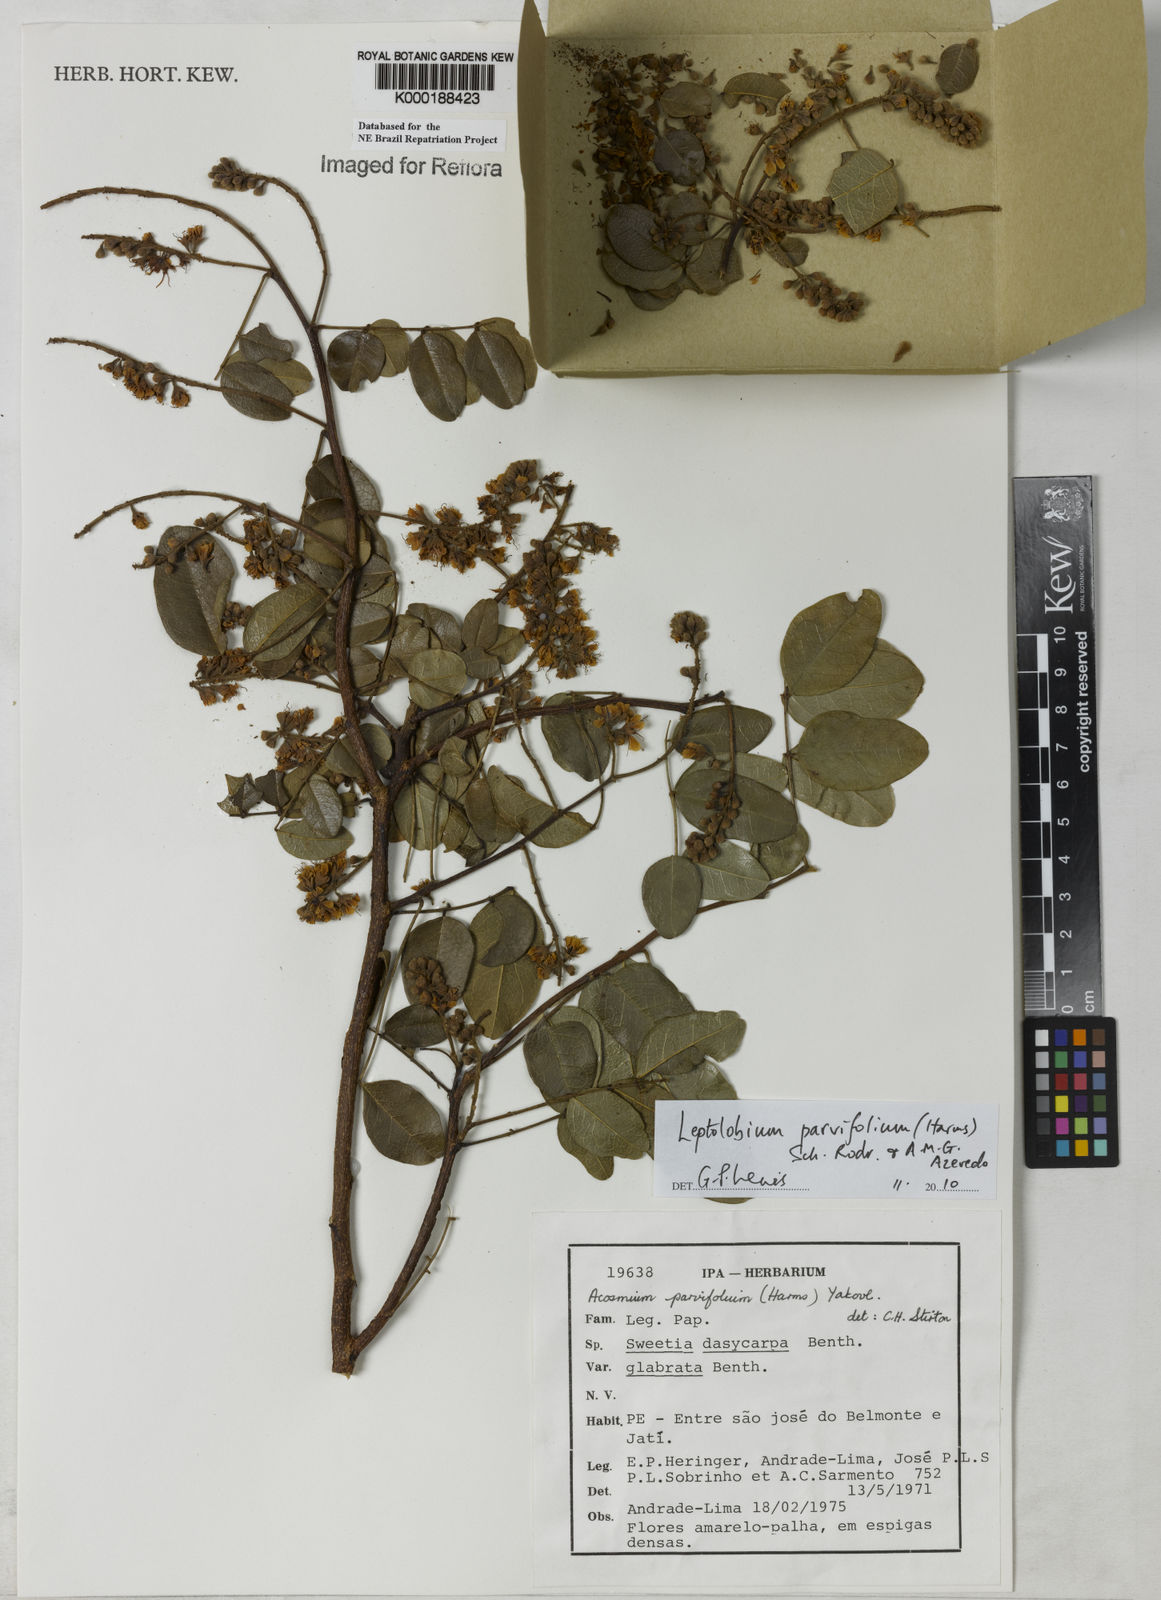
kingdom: Plantae
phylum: Tracheophyta
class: Magnoliopsida
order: Fabales
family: Fabaceae
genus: Leptolobium
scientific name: Leptolobium parvifolium
